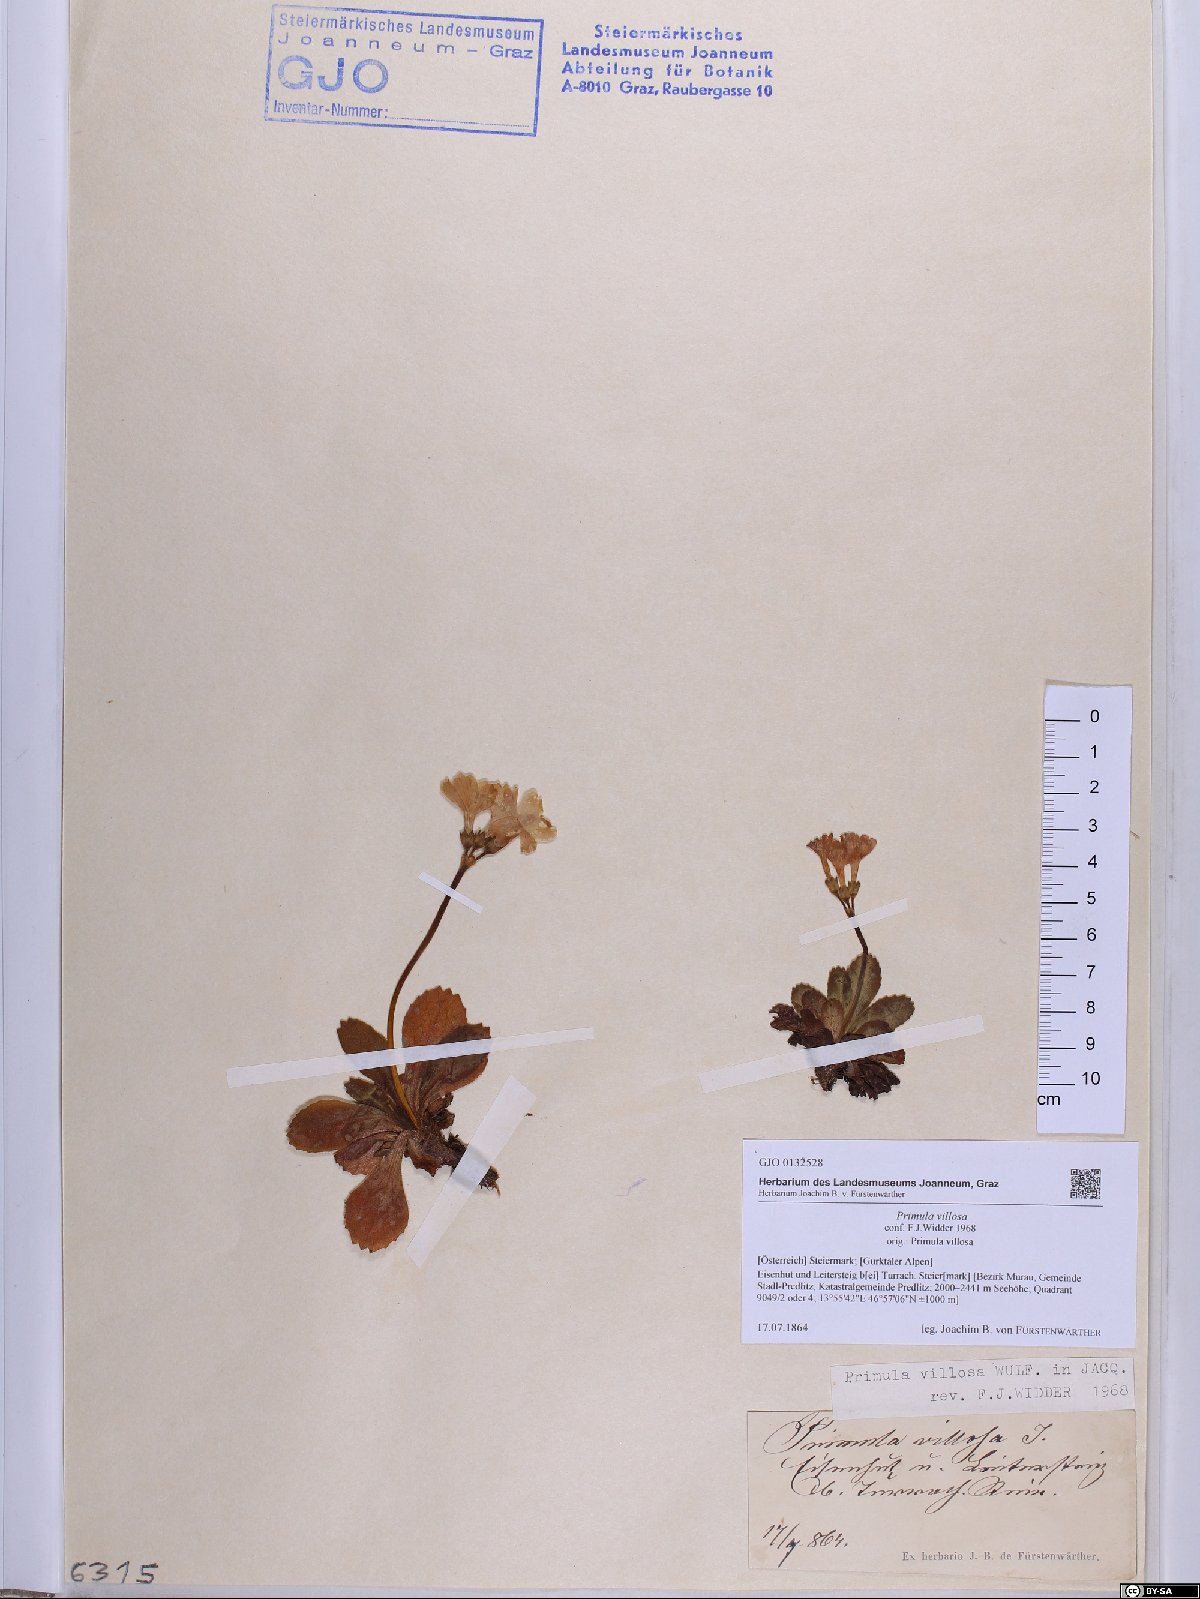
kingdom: Plantae
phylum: Tracheophyta
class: Magnoliopsida
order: Ericales
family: Primulaceae
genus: Primula
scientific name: Primula villosa
